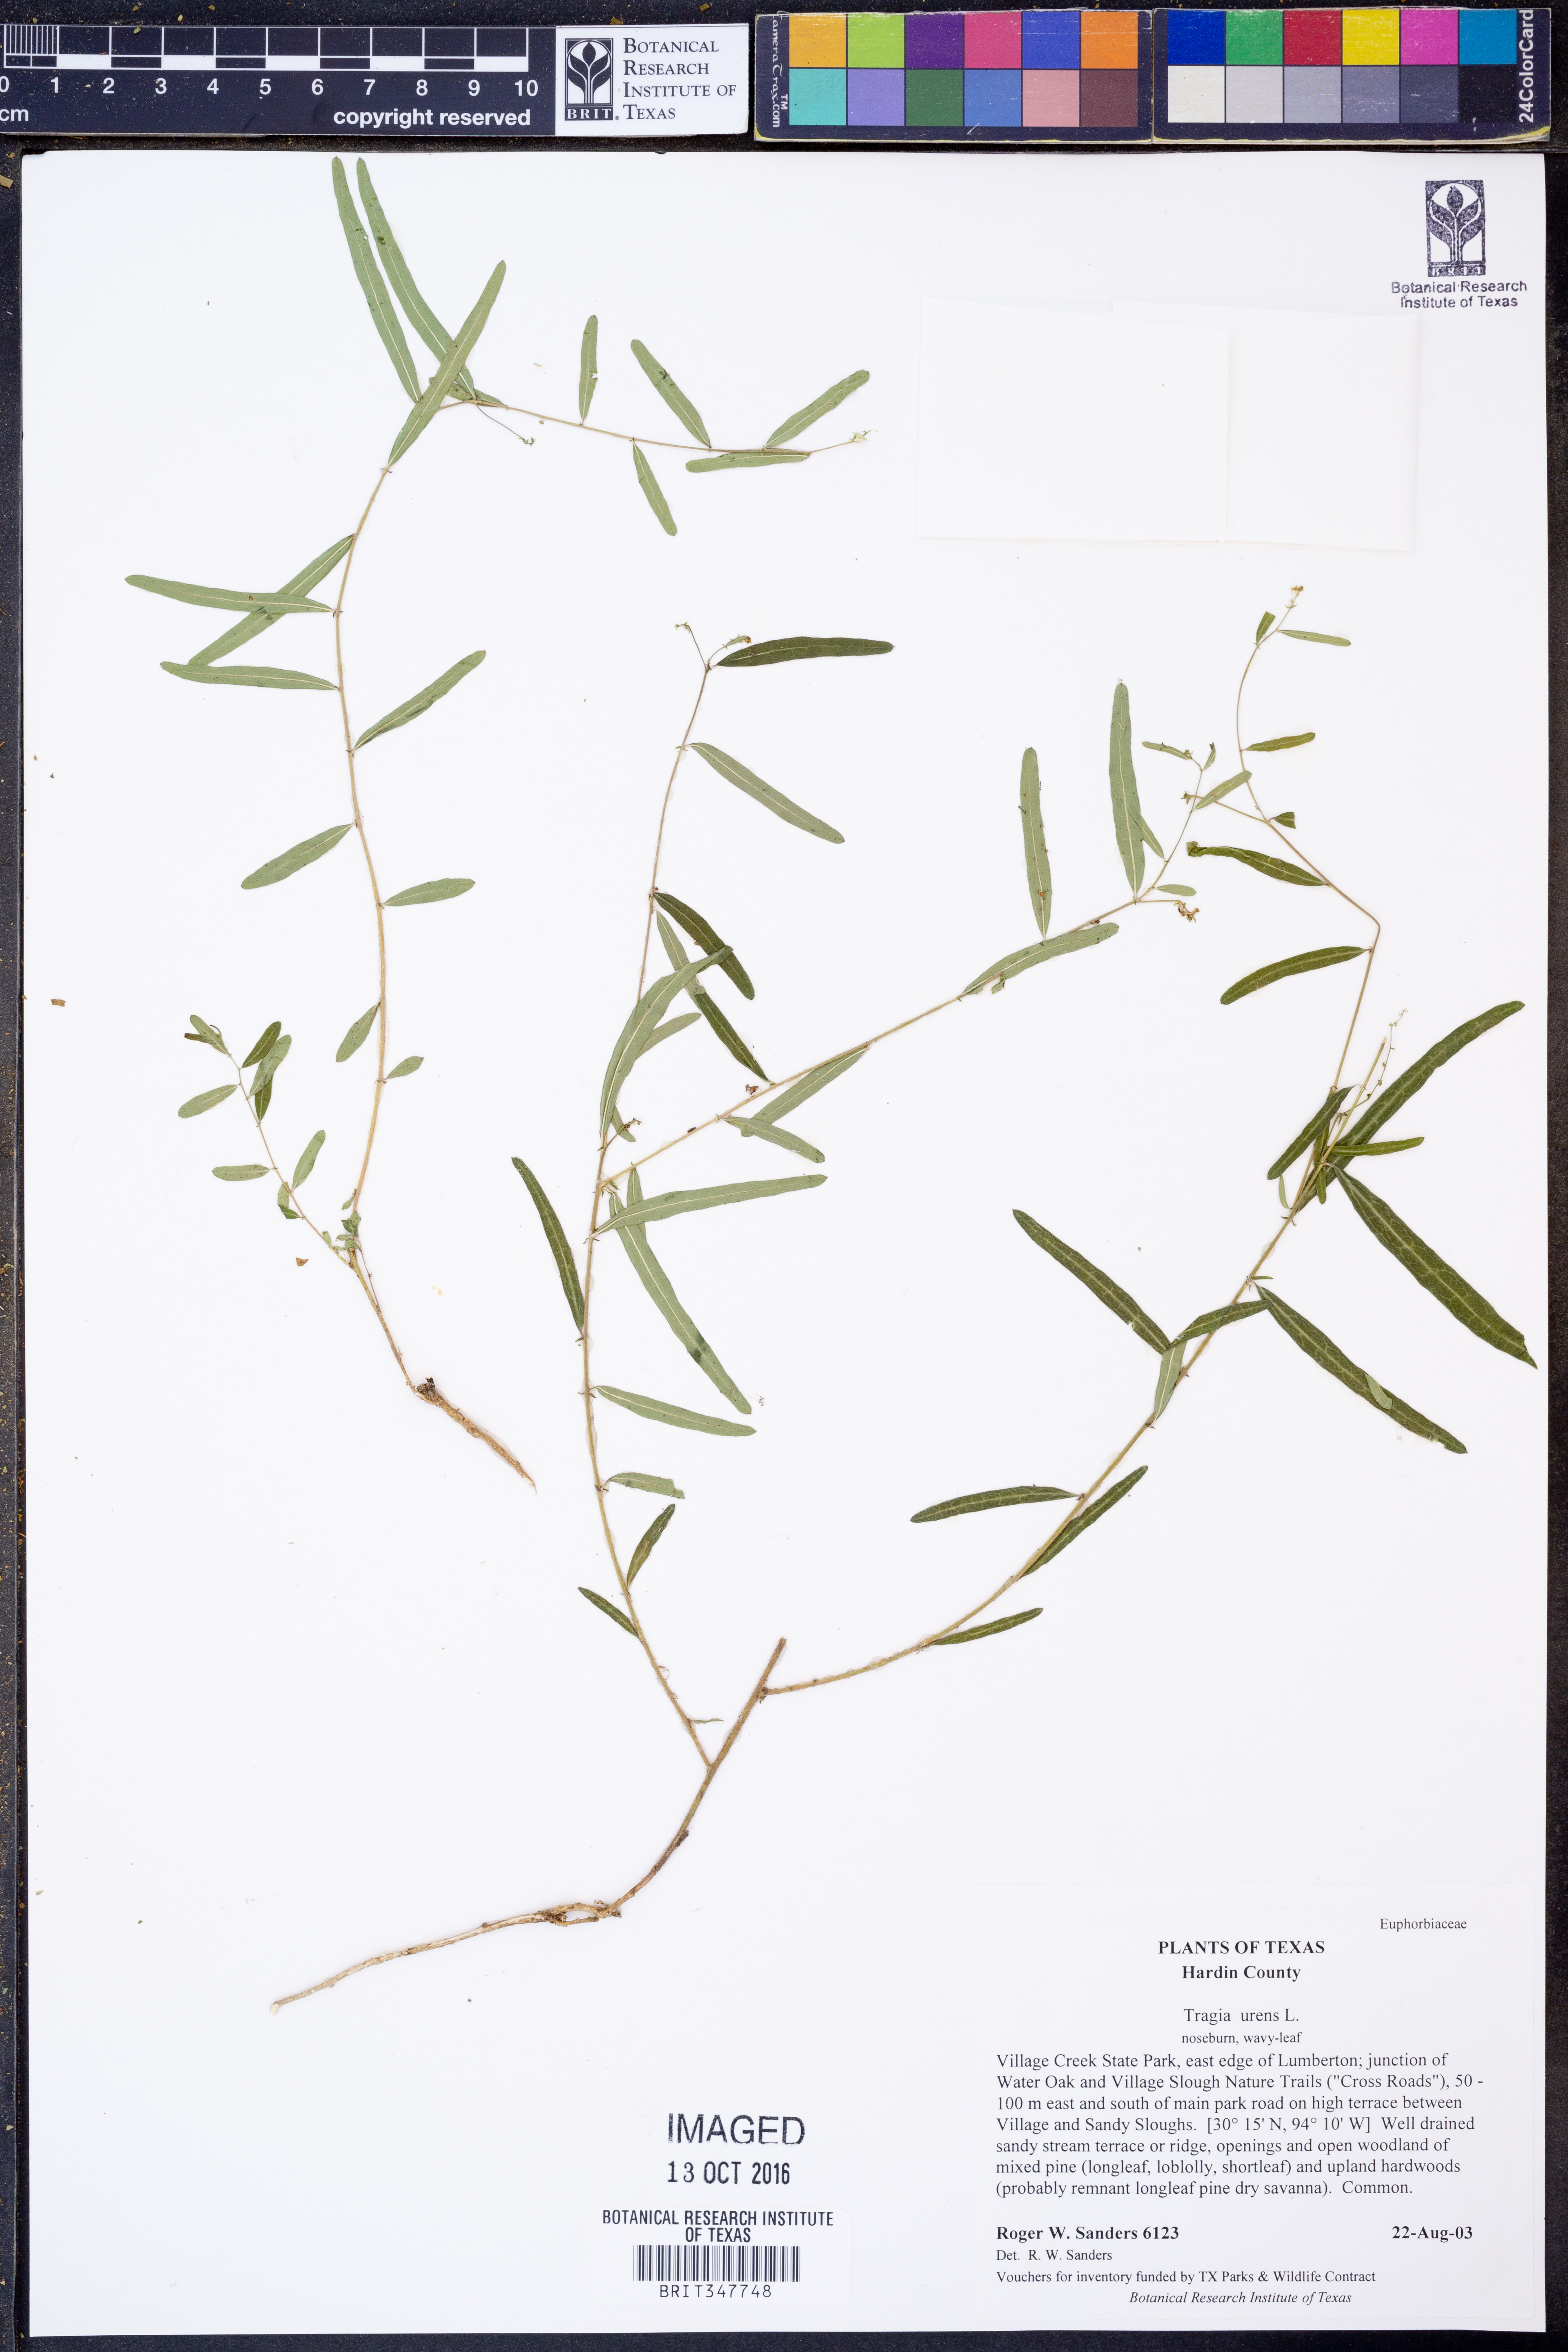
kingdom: Plantae
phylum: Tracheophyta
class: Magnoliopsida
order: Malpighiales
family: Euphorbiaceae
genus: Tragia
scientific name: Tragia urens
